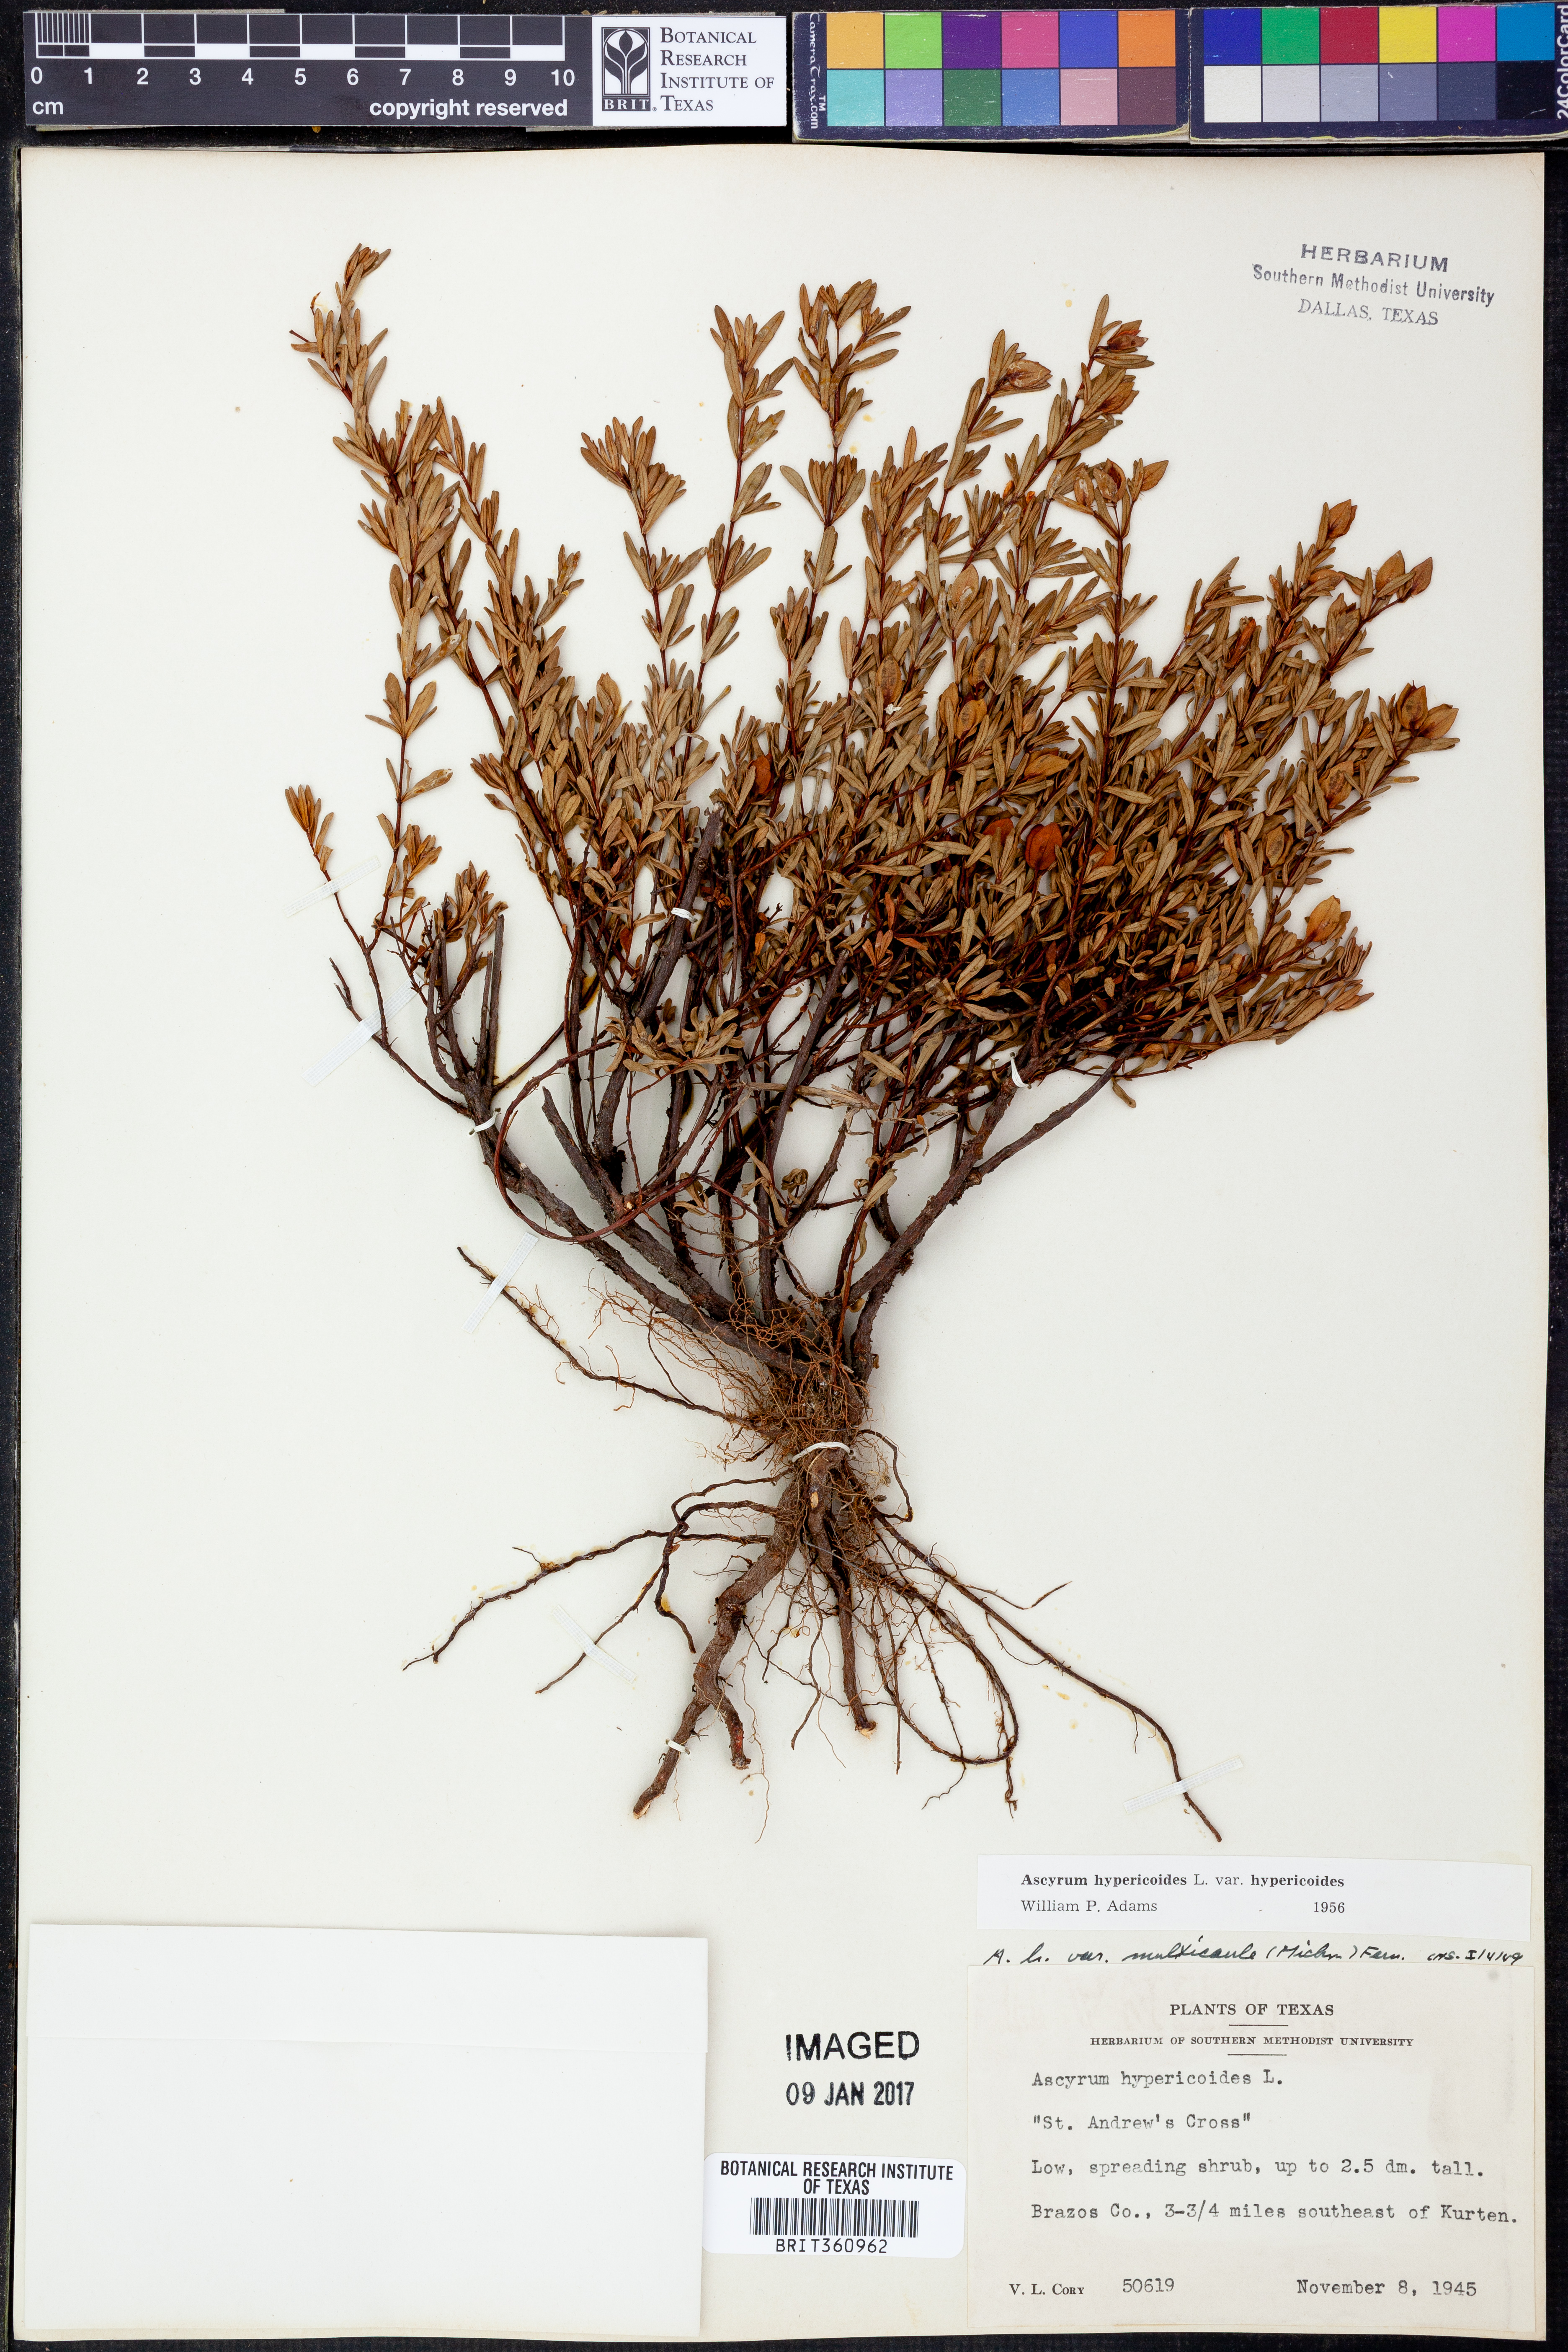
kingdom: Plantae
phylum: Tracheophyta
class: Magnoliopsida
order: Malpighiales
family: Hypericaceae
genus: Hypericum
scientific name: Hypericum hypericoides
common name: St. andrew's cross
